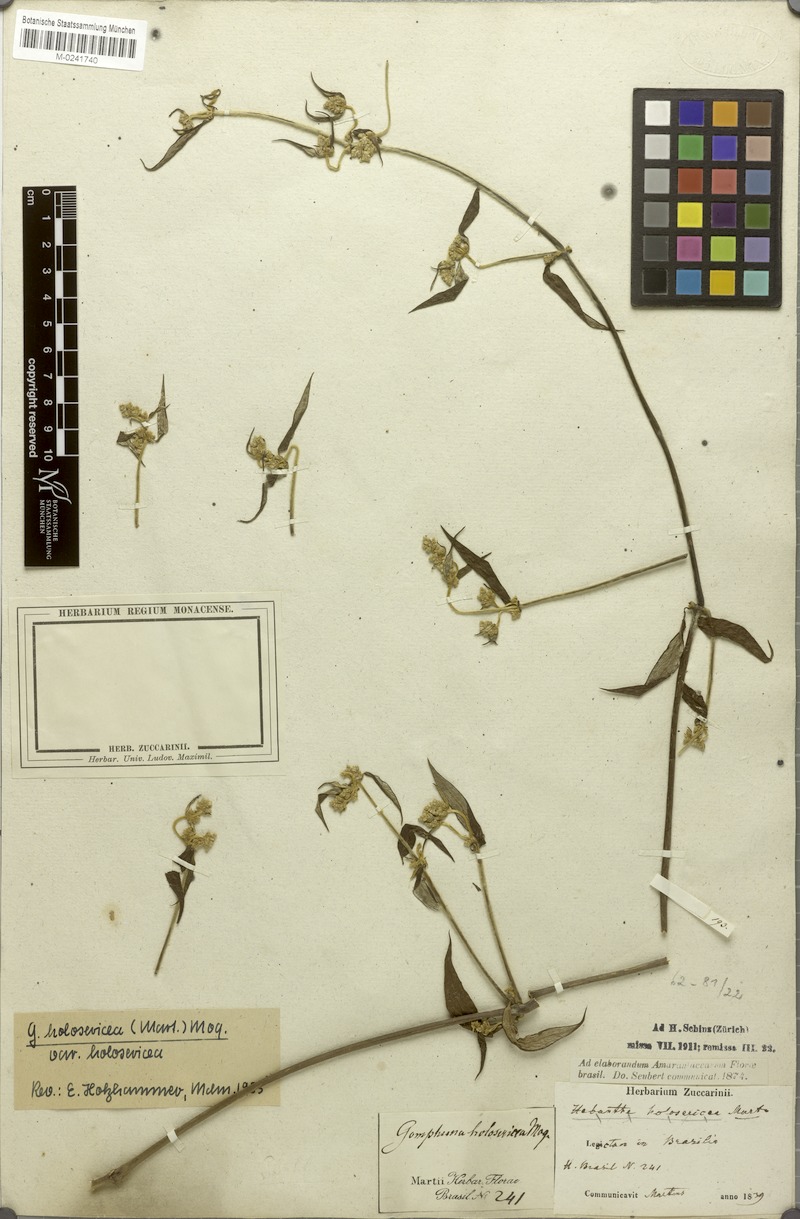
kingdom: Plantae
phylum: Tracheophyta
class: Magnoliopsida
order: Caryophyllales
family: Amaranthaceae
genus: Gomphrena
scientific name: Gomphrena vaga
